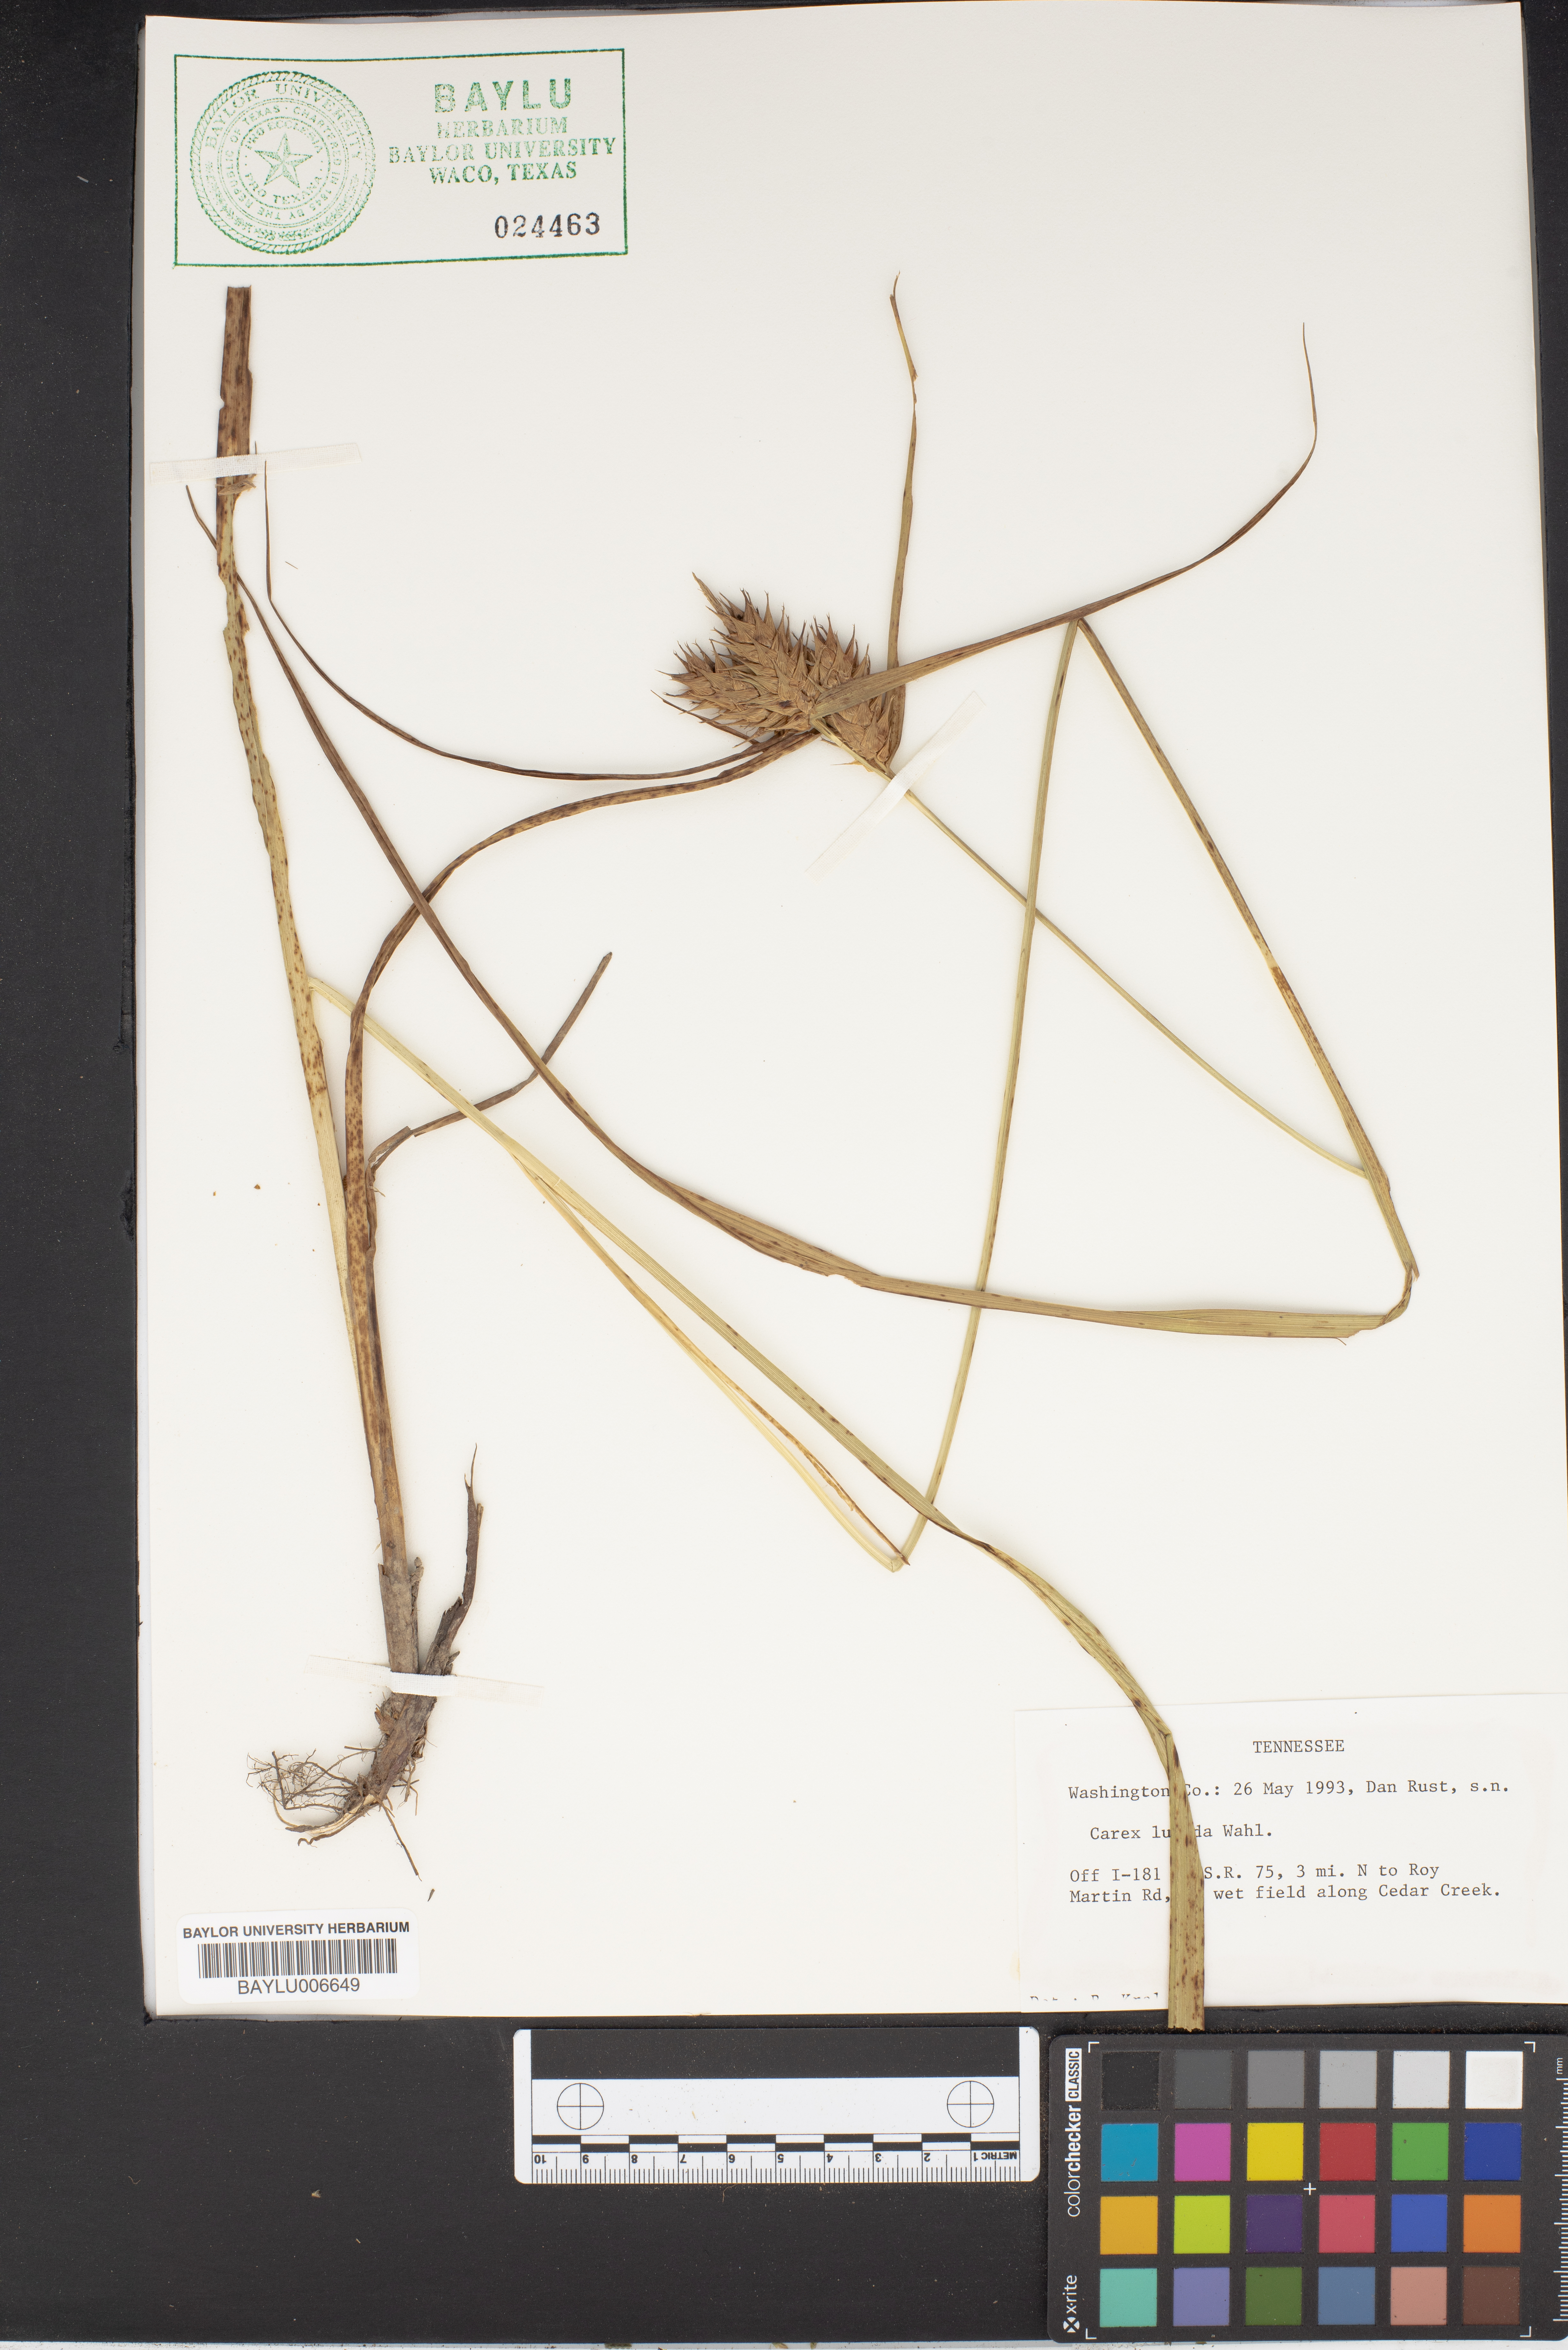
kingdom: Plantae
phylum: Tracheophyta
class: Liliopsida
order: Poales
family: Cyperaceae
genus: Carex
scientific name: Carex lucida
